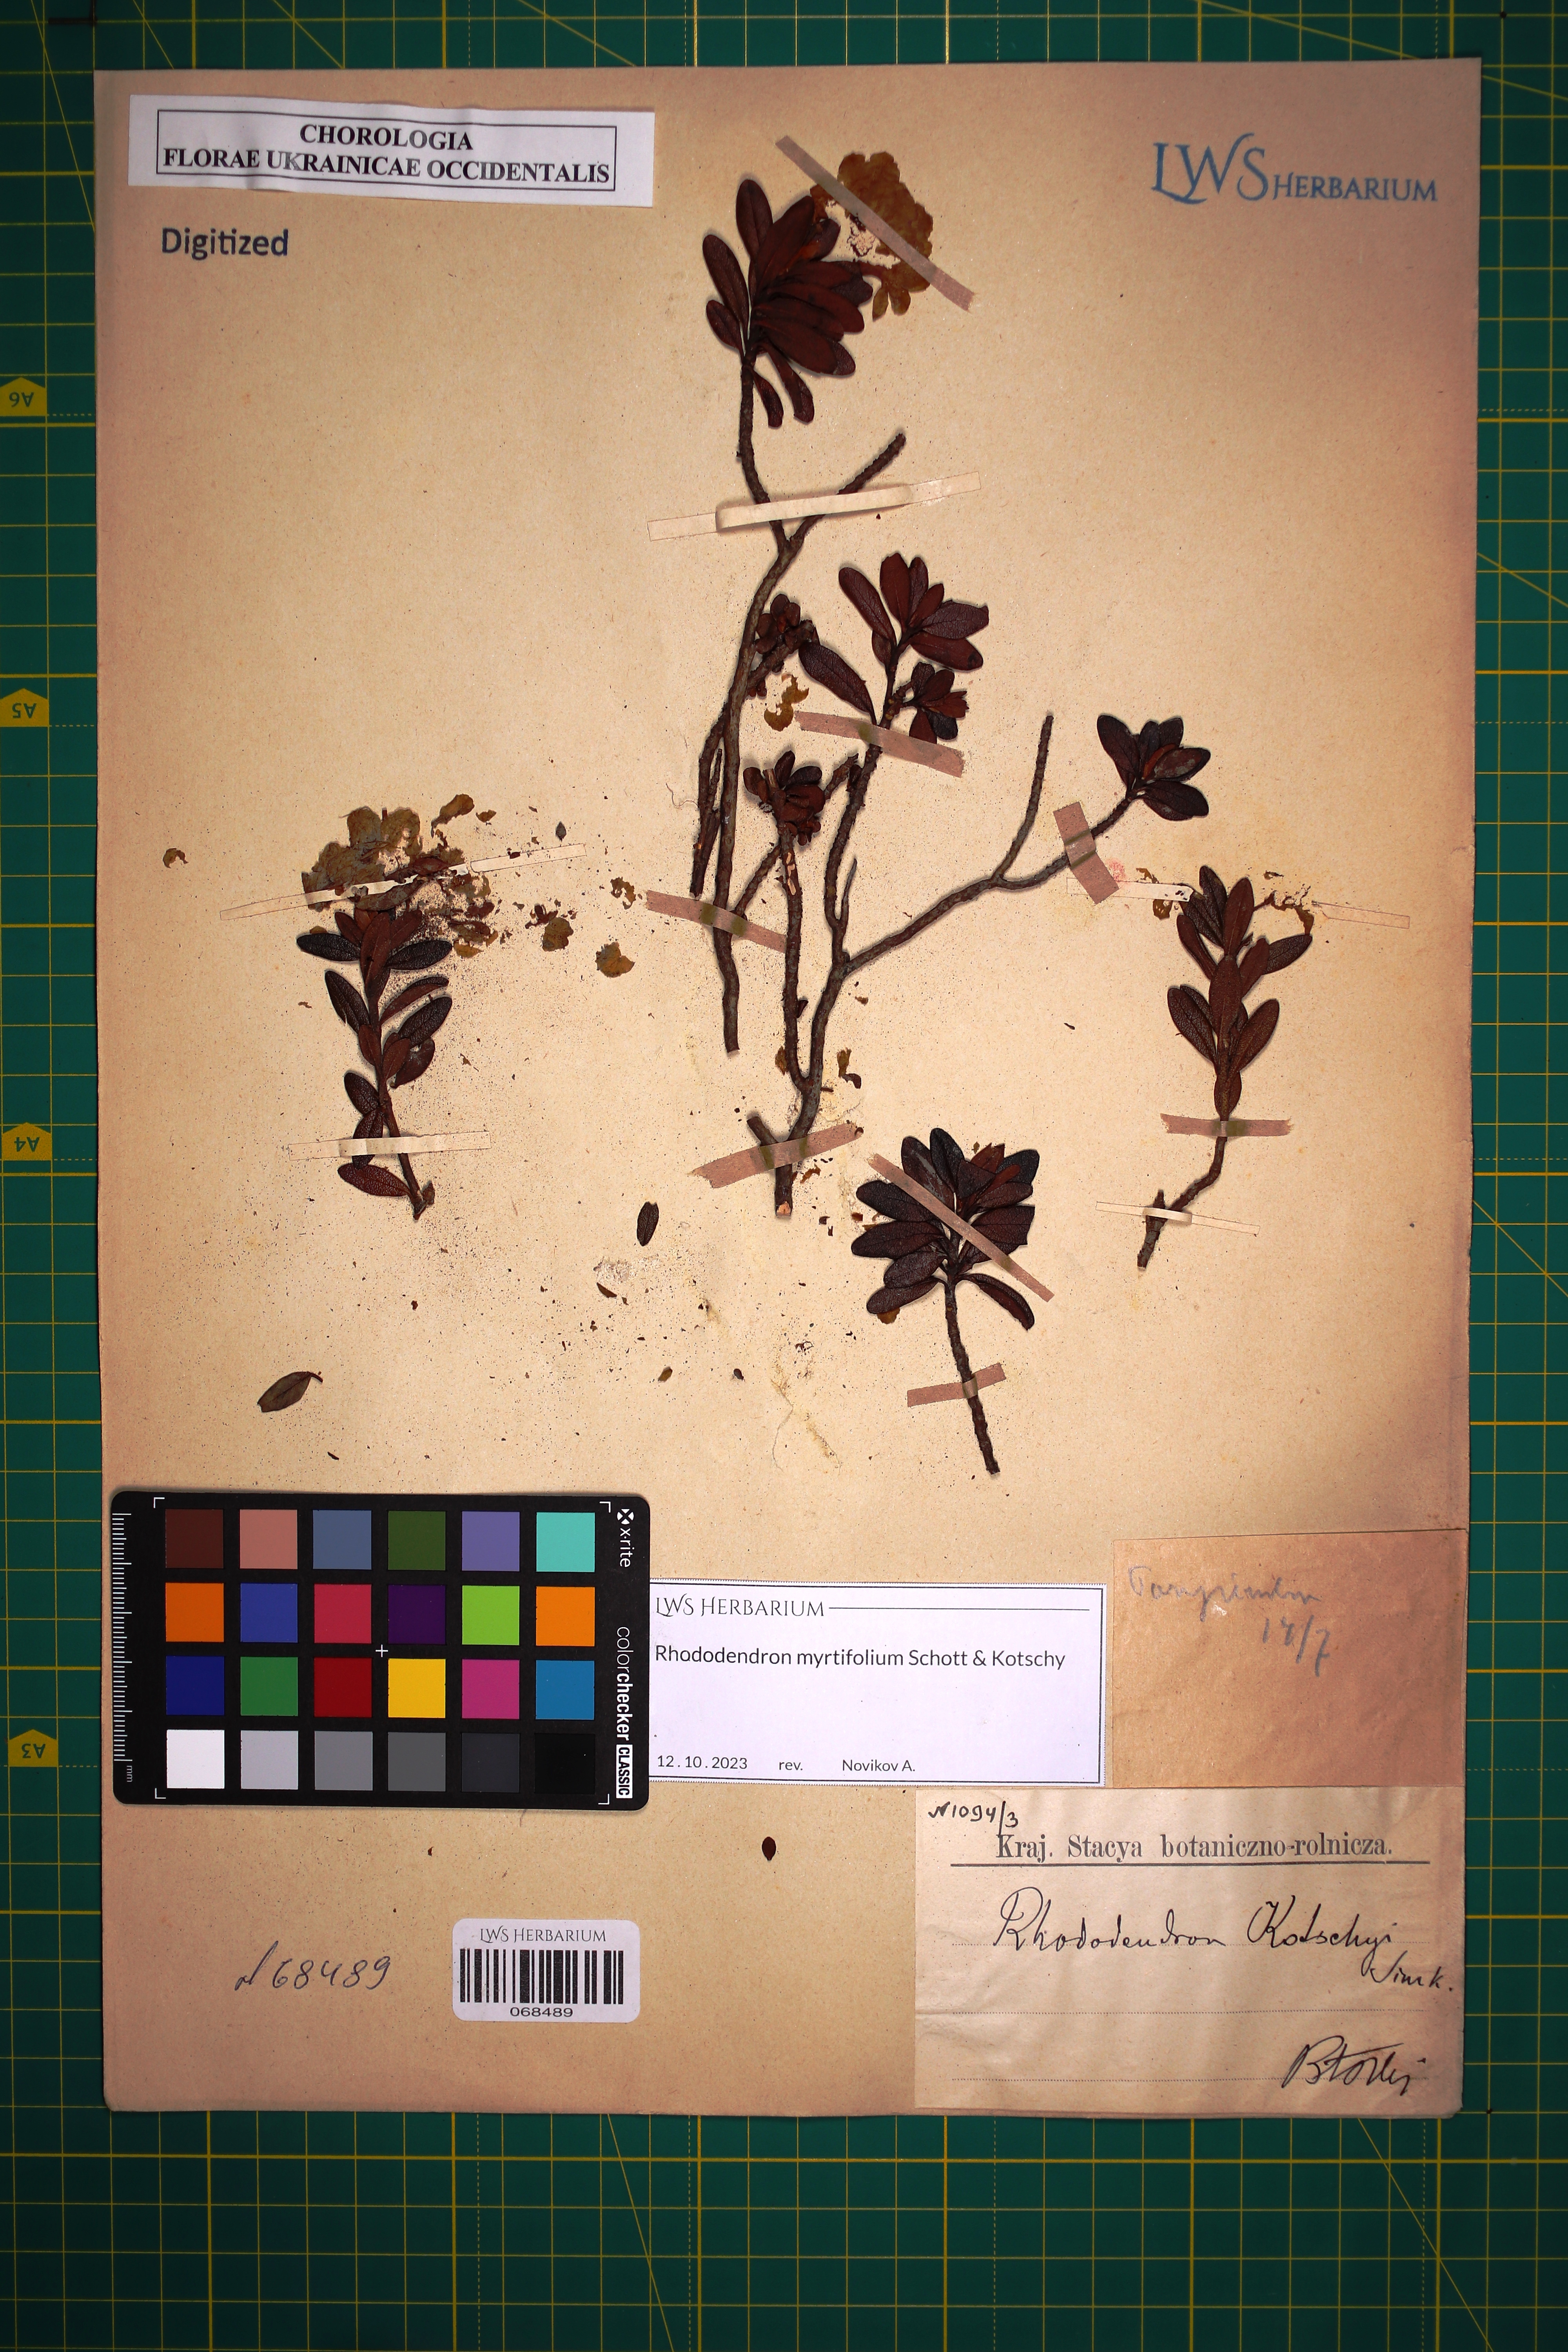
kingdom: Plantae
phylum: Tracheophyta
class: Magnoliopsida
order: Ericales
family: Ericaceae
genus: Rhododendron
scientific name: Rhododendron kotschyi
